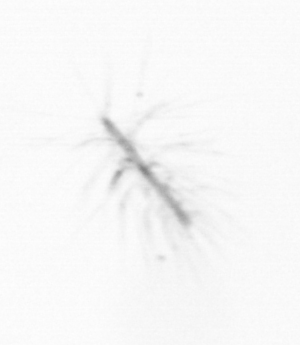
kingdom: Chromista
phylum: Ochrophyta
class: Bacillariophyceae
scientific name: Bacillariophyceae
